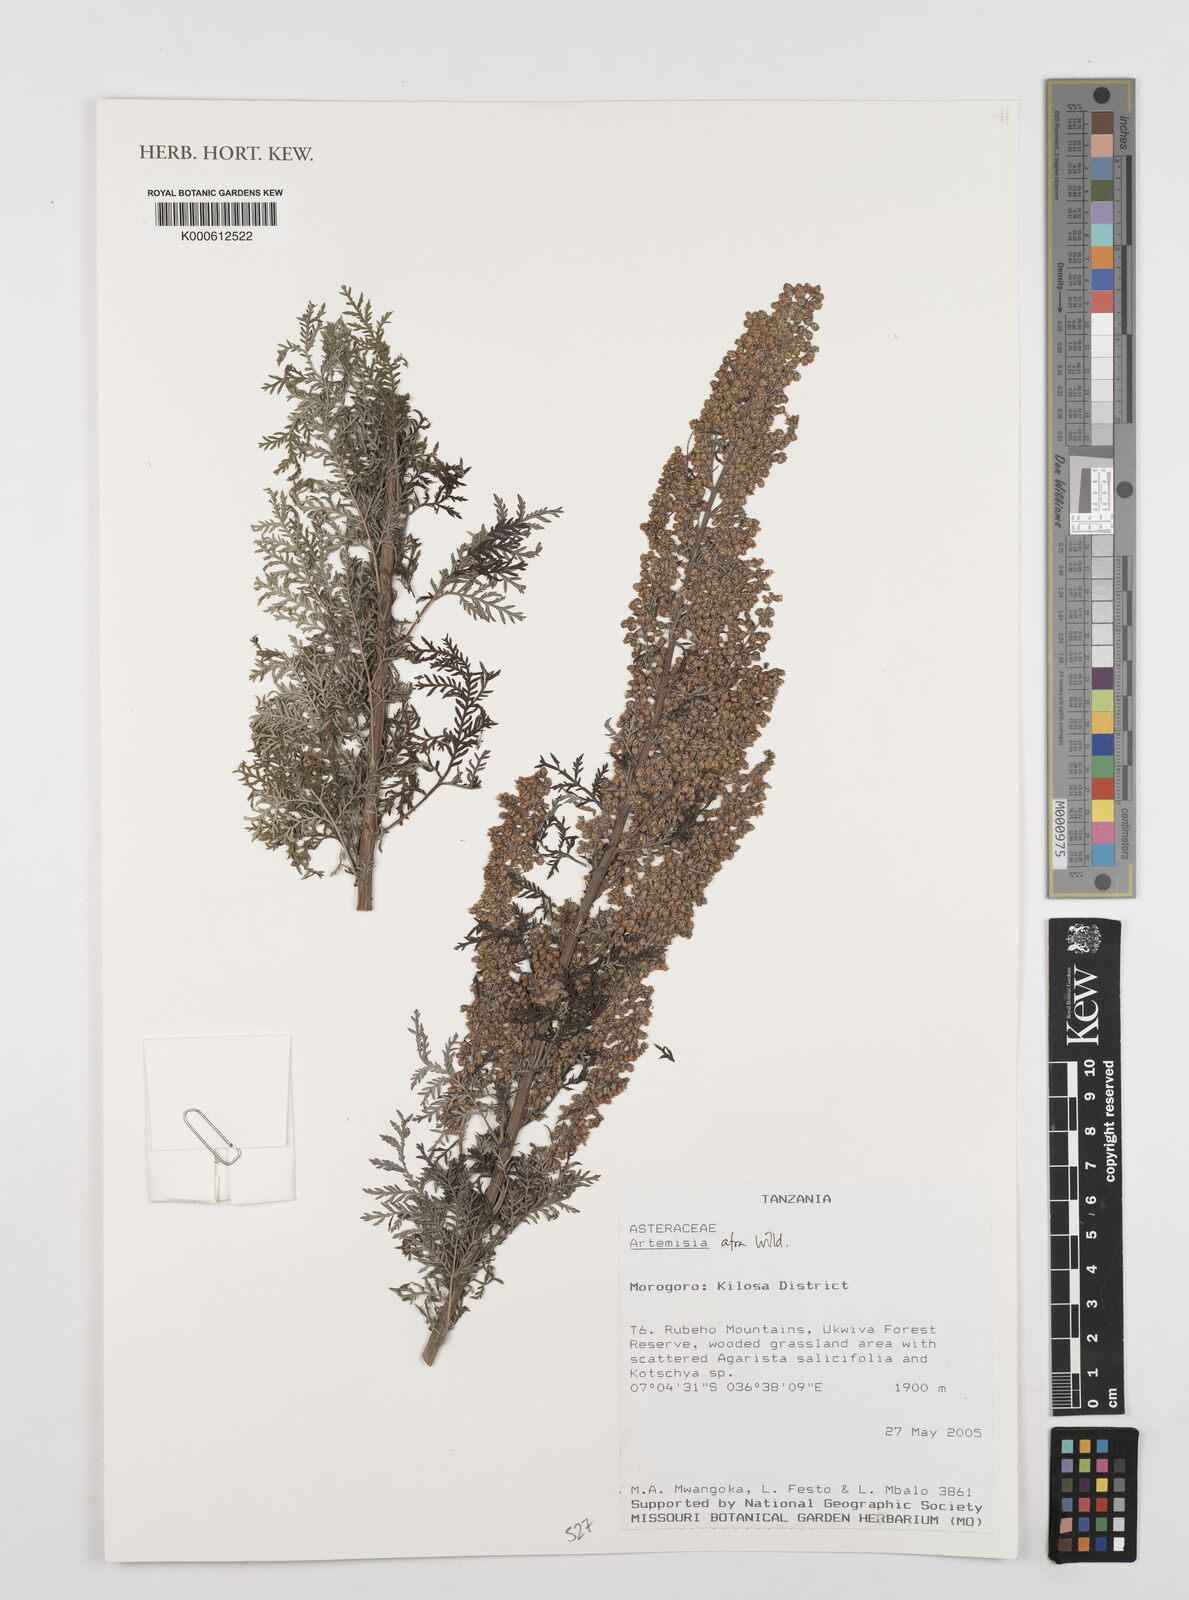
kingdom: Plantae
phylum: Tracheophyta
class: Magnoliopsida
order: Asterales
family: Asteraceae
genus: Artemisia
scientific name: Artemisia
